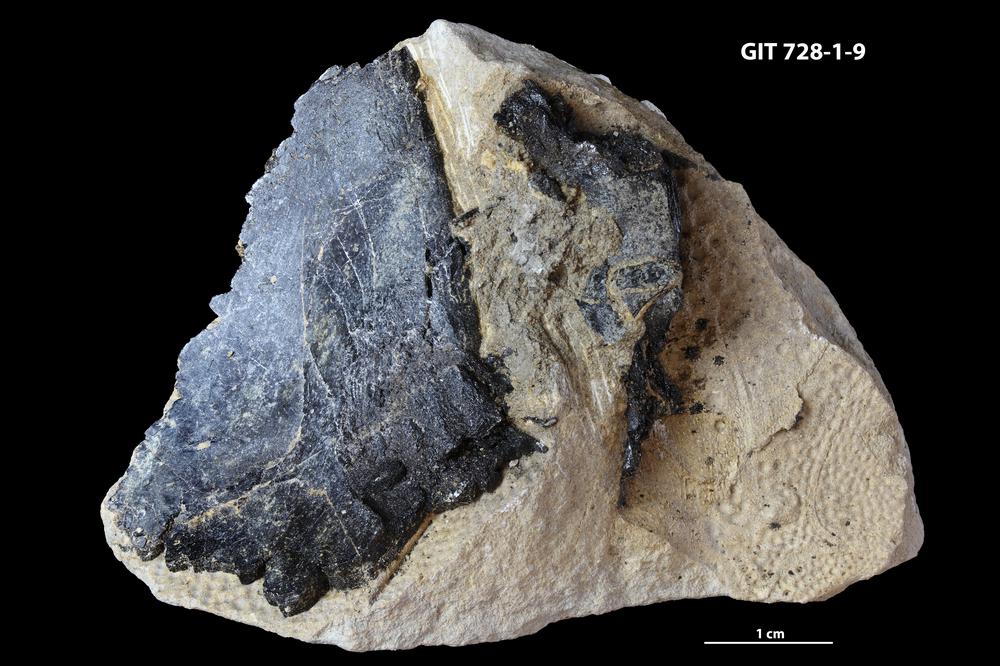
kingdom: Animalia
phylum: Chordata
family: Coccosteidae
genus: Watsonosteus
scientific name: Watsonosteus
